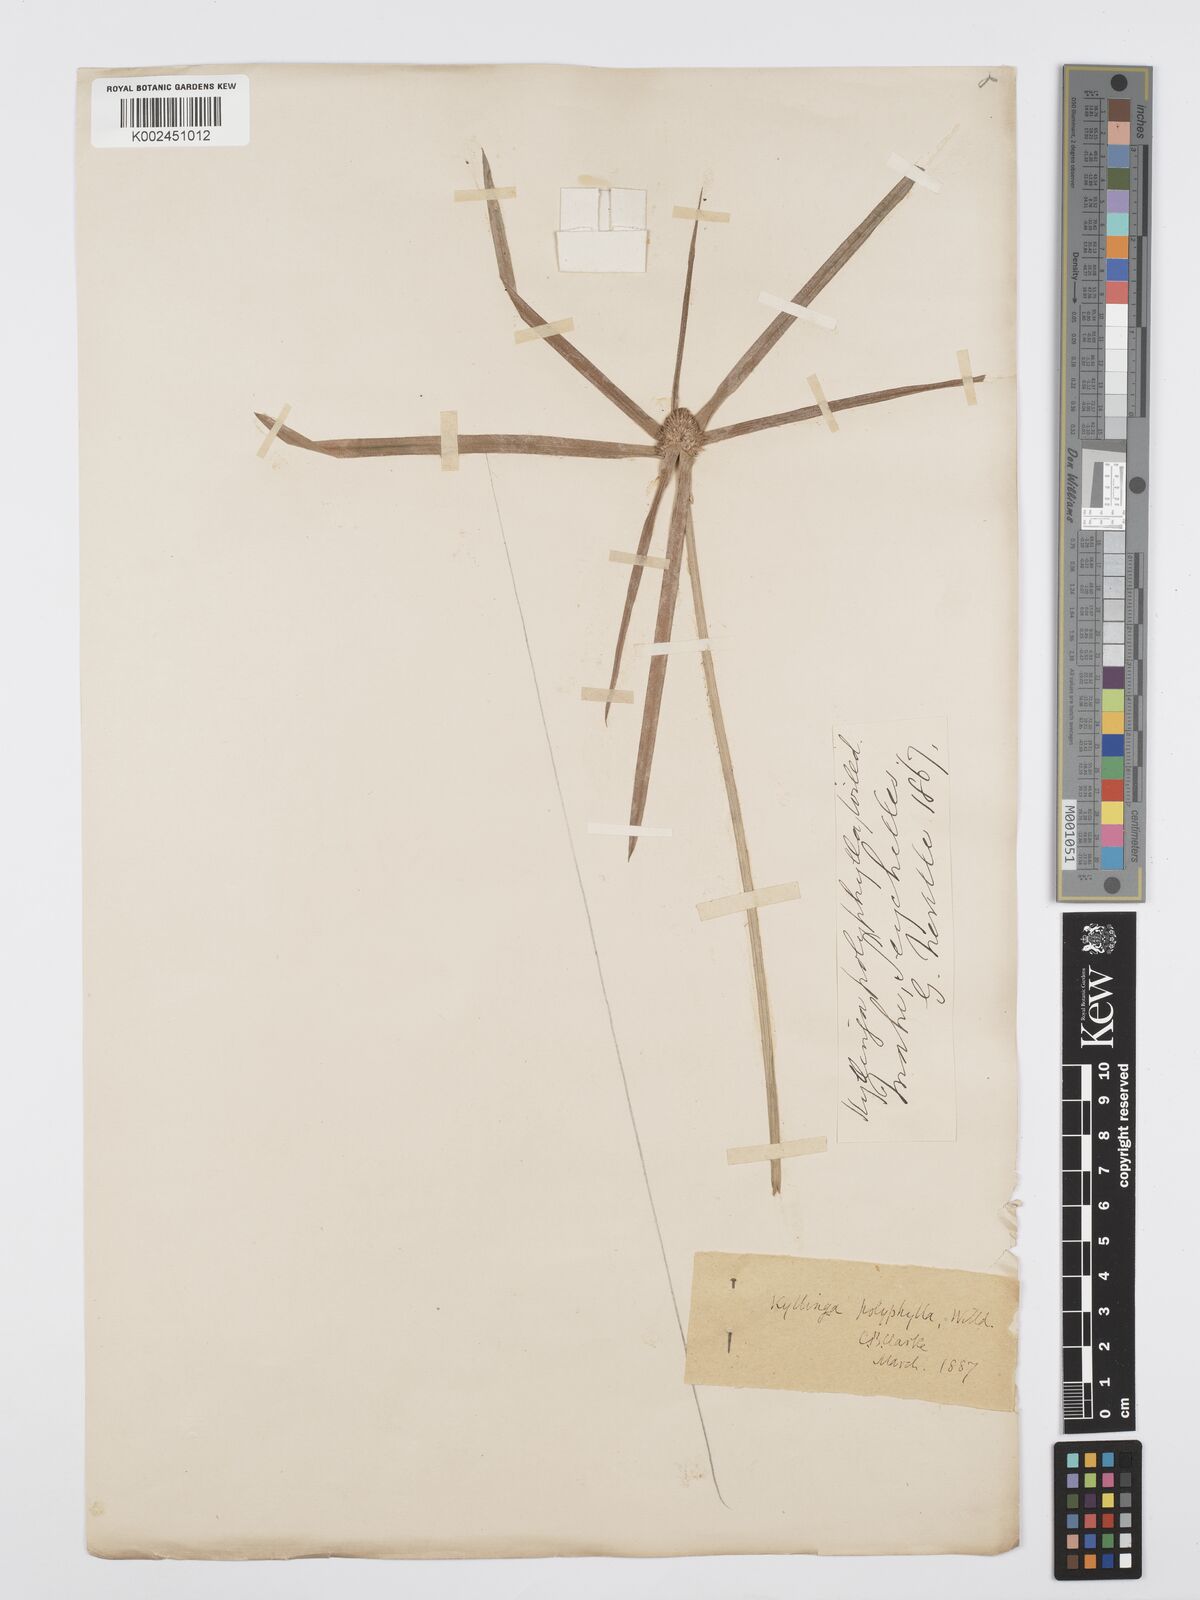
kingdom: Plantae
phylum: Tracheophyta
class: Liliopsida
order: Poales
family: Cyperaceae
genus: Cyperus
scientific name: Cyperus bulbosus
